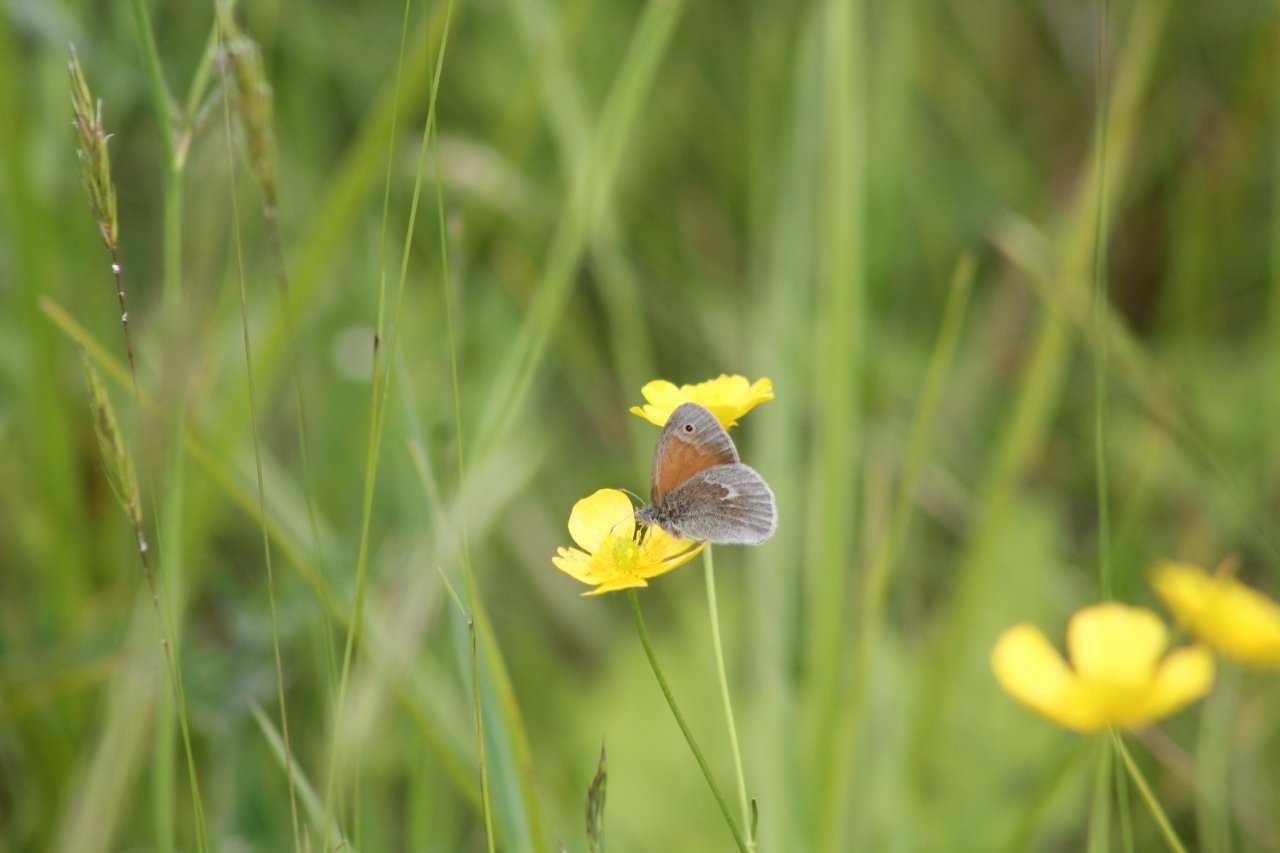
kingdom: Animalia
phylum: Arthropoda
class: Insecta
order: Lepidoptera
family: Nymphalidae
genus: Coenonympha
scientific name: Coenonympha tullia
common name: Large Heath
